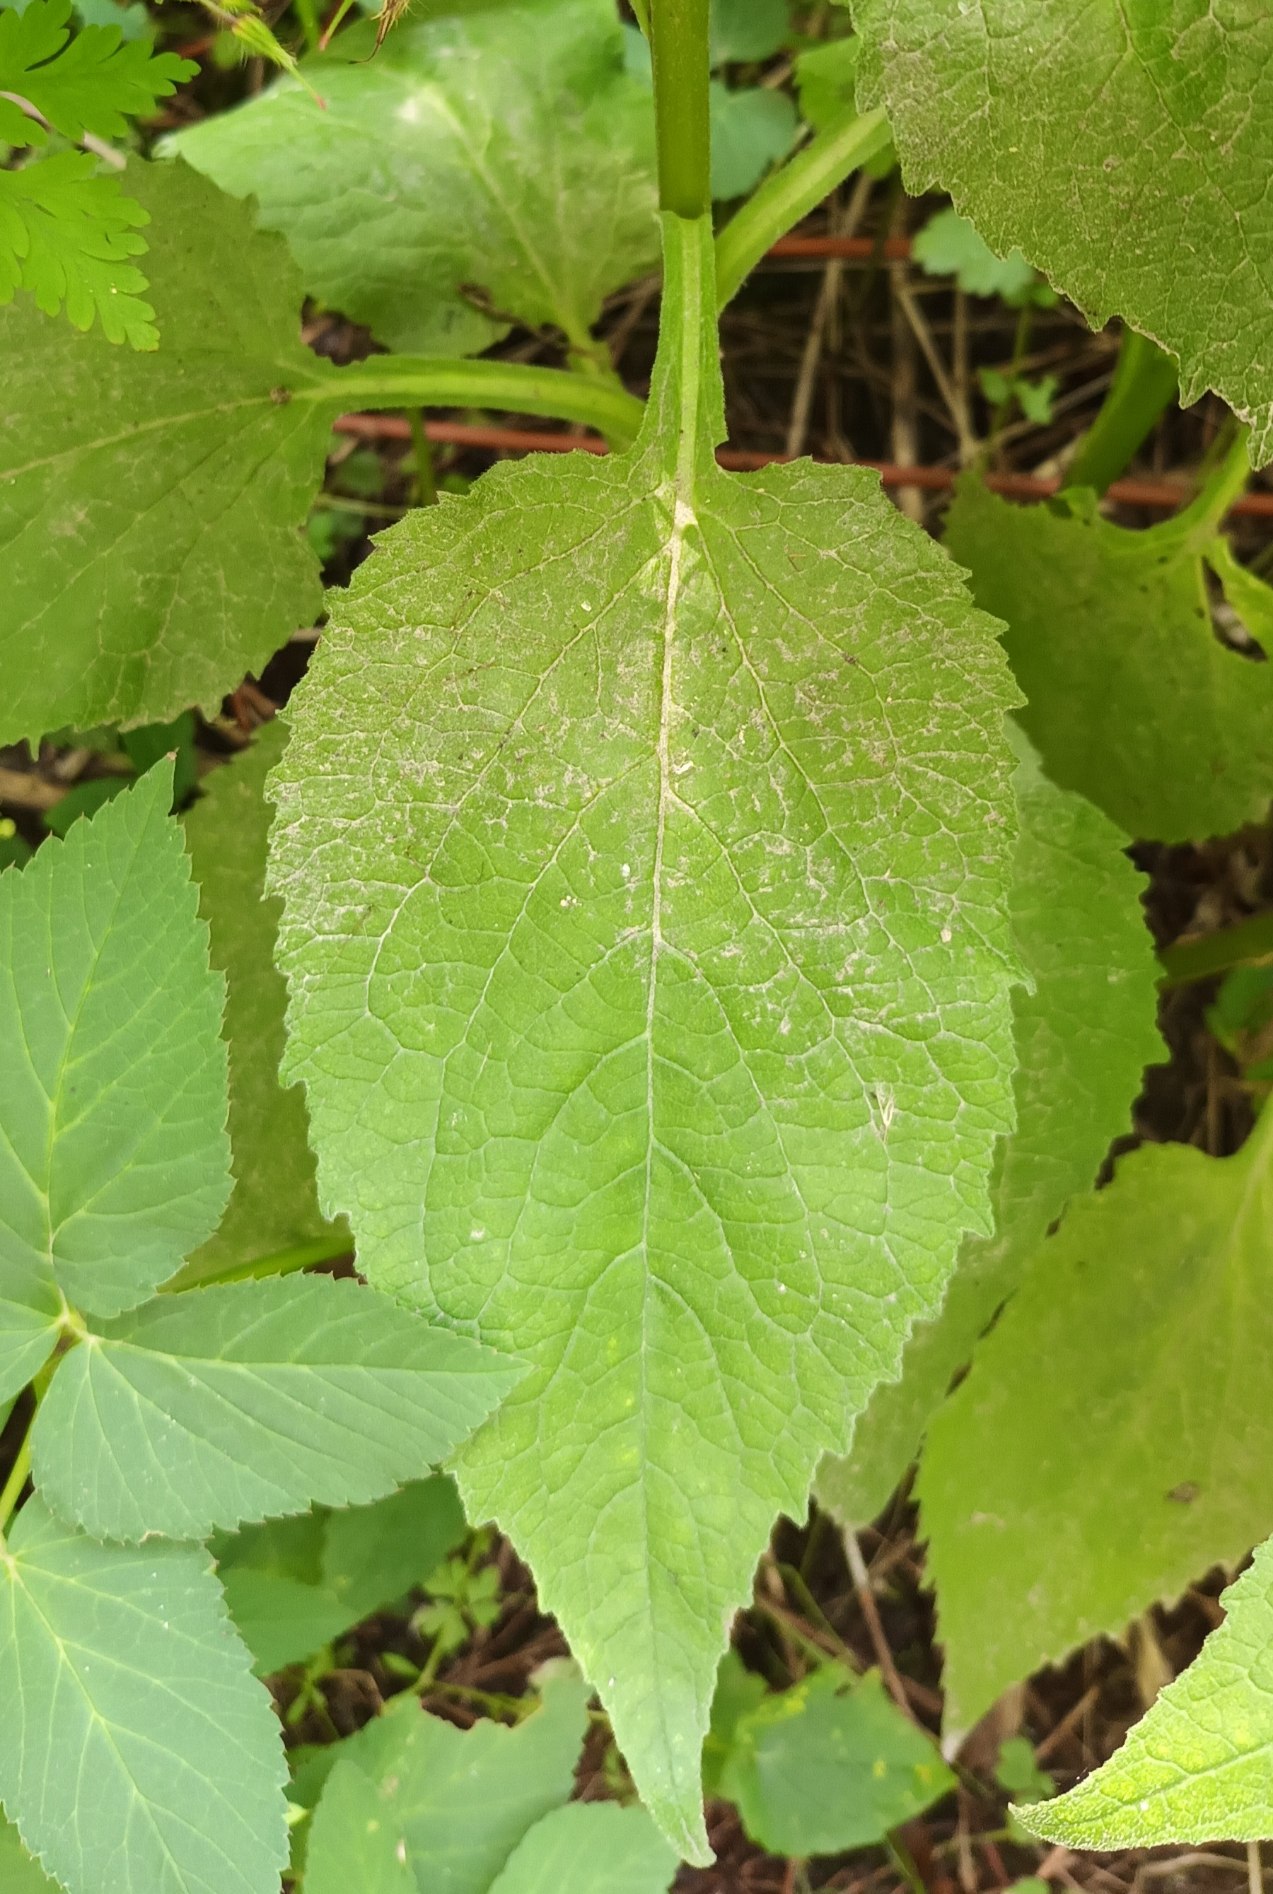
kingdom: Plantae
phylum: Tracheophyta
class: Magnoliopsida
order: Asterales
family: Campanulaceae
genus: Campanula
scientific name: Campanula latifolia
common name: Bredbladet klokke
